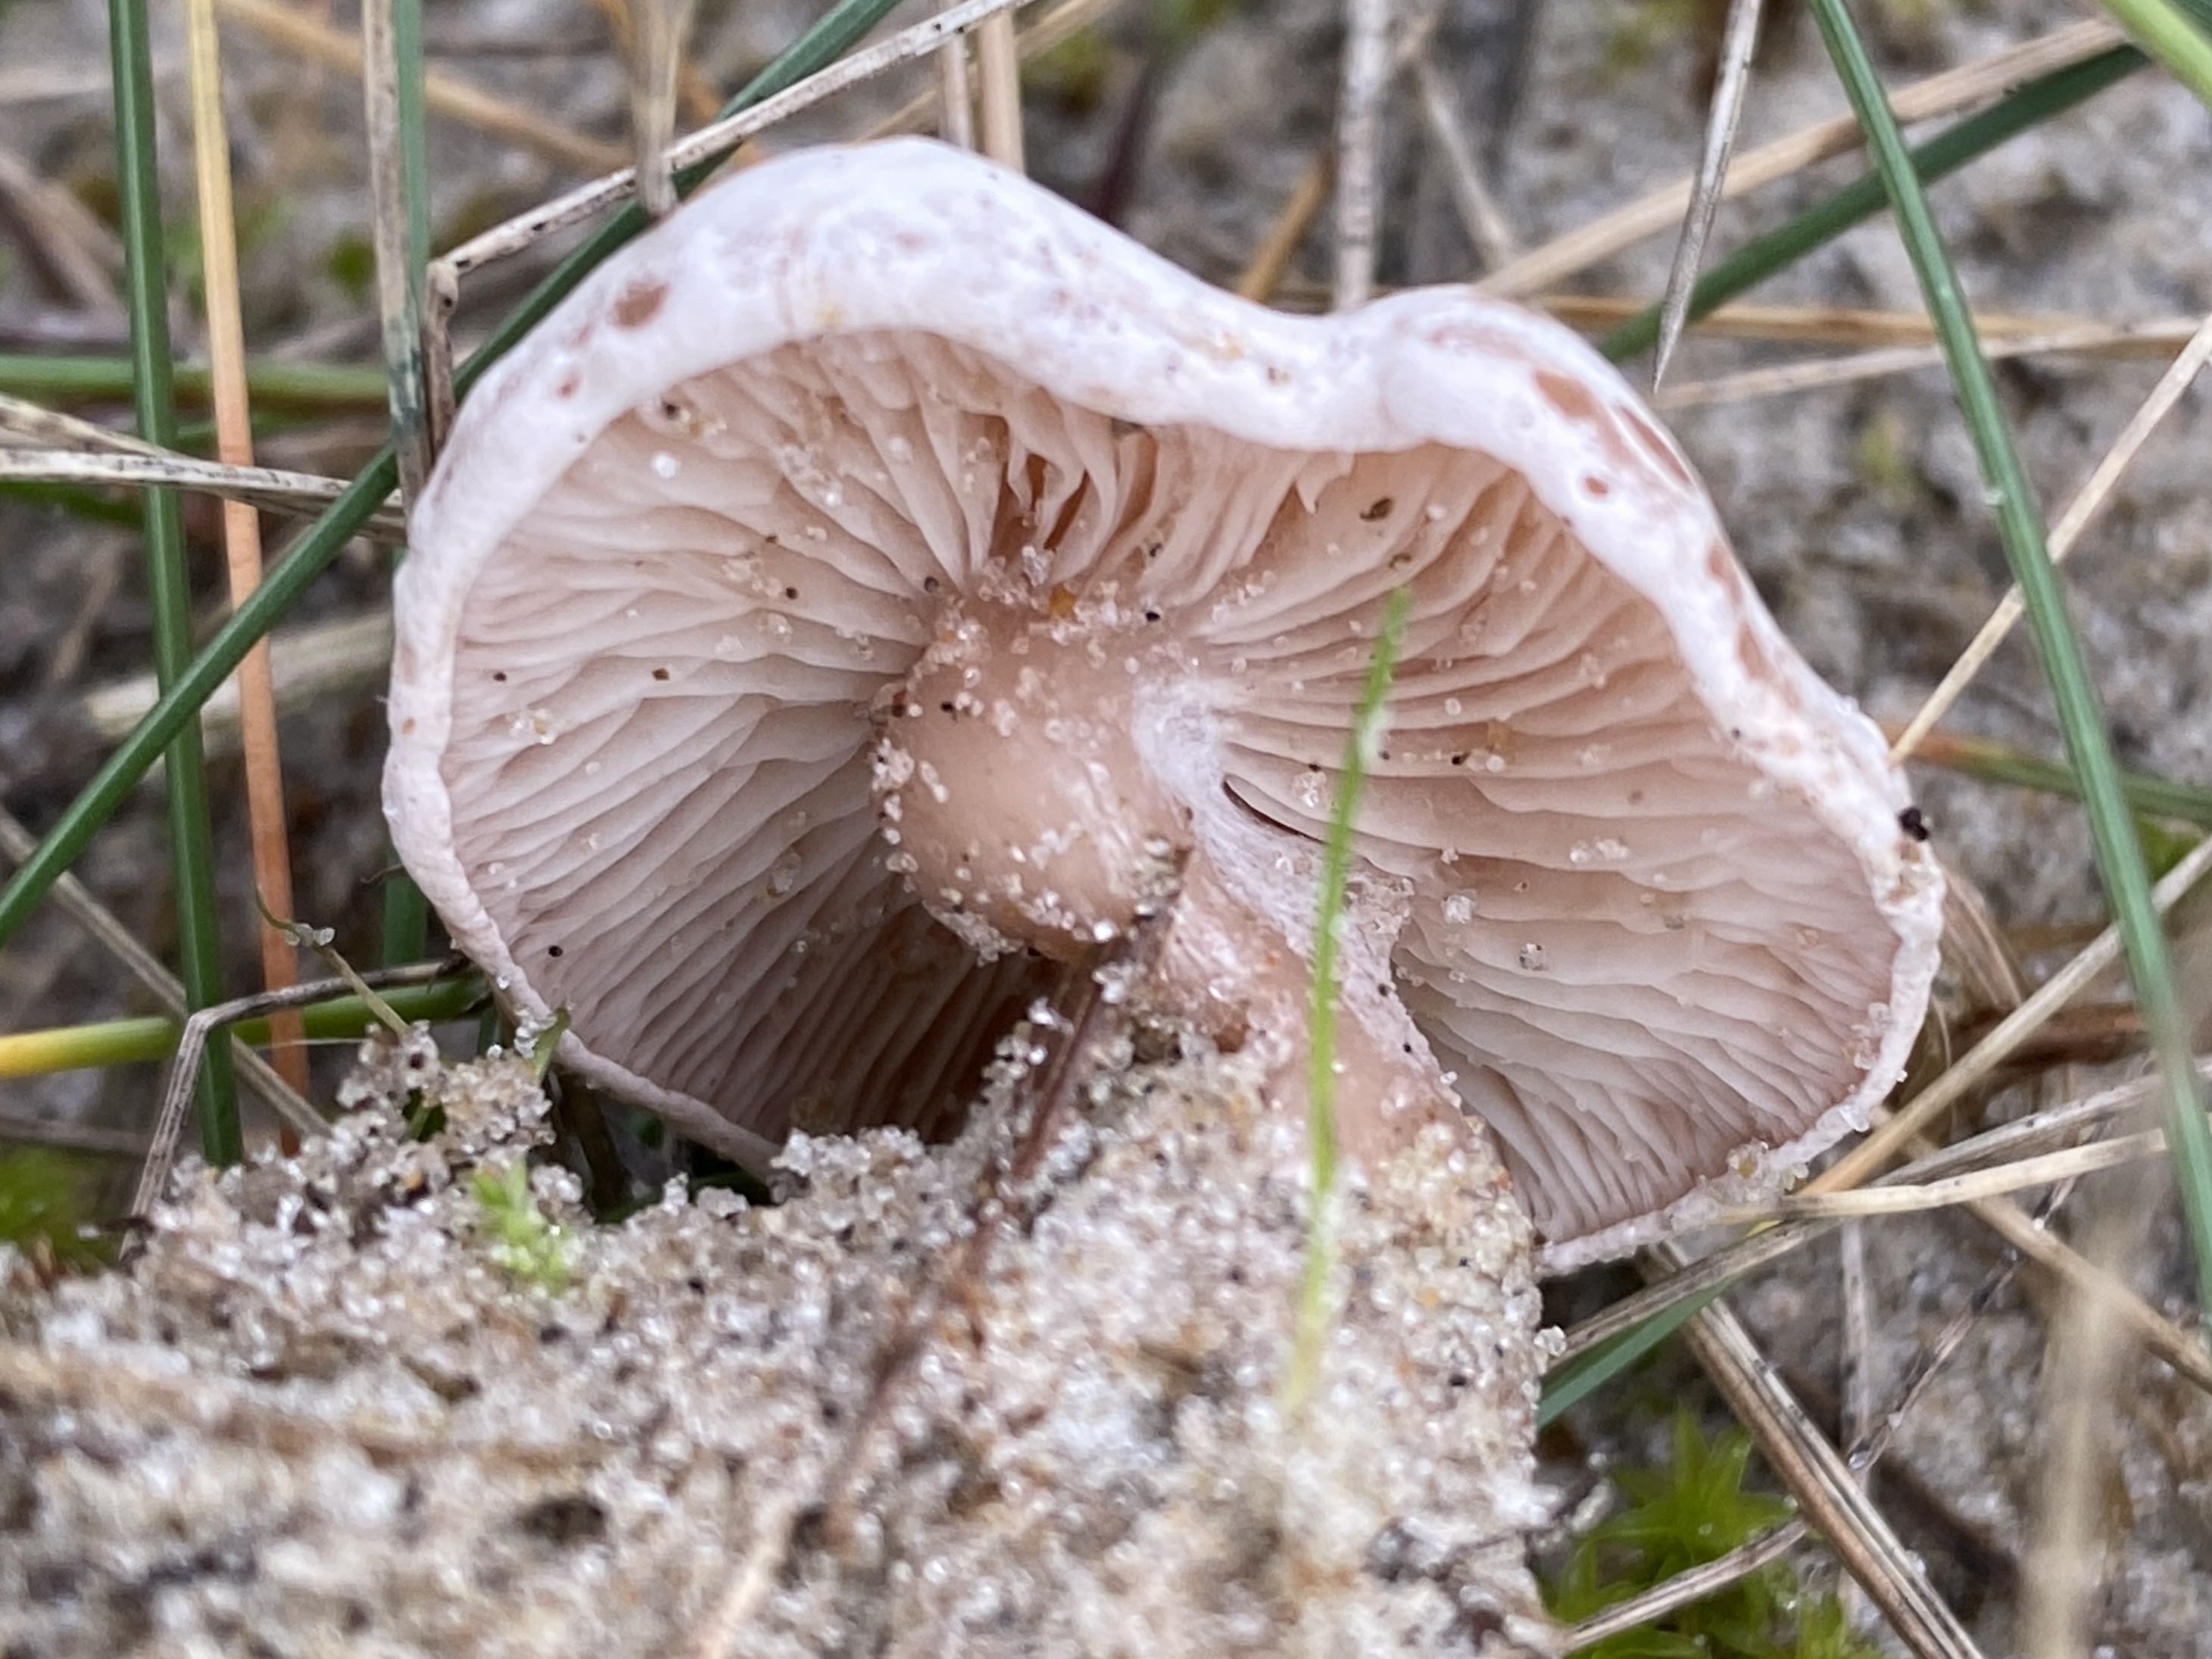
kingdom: Fungi
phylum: Basidiomycota
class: Agaricomycetes
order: Agaricales
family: Tricholomataceae
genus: Clitocybe
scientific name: Clitocybe rivulosa
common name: eng-tragthat
